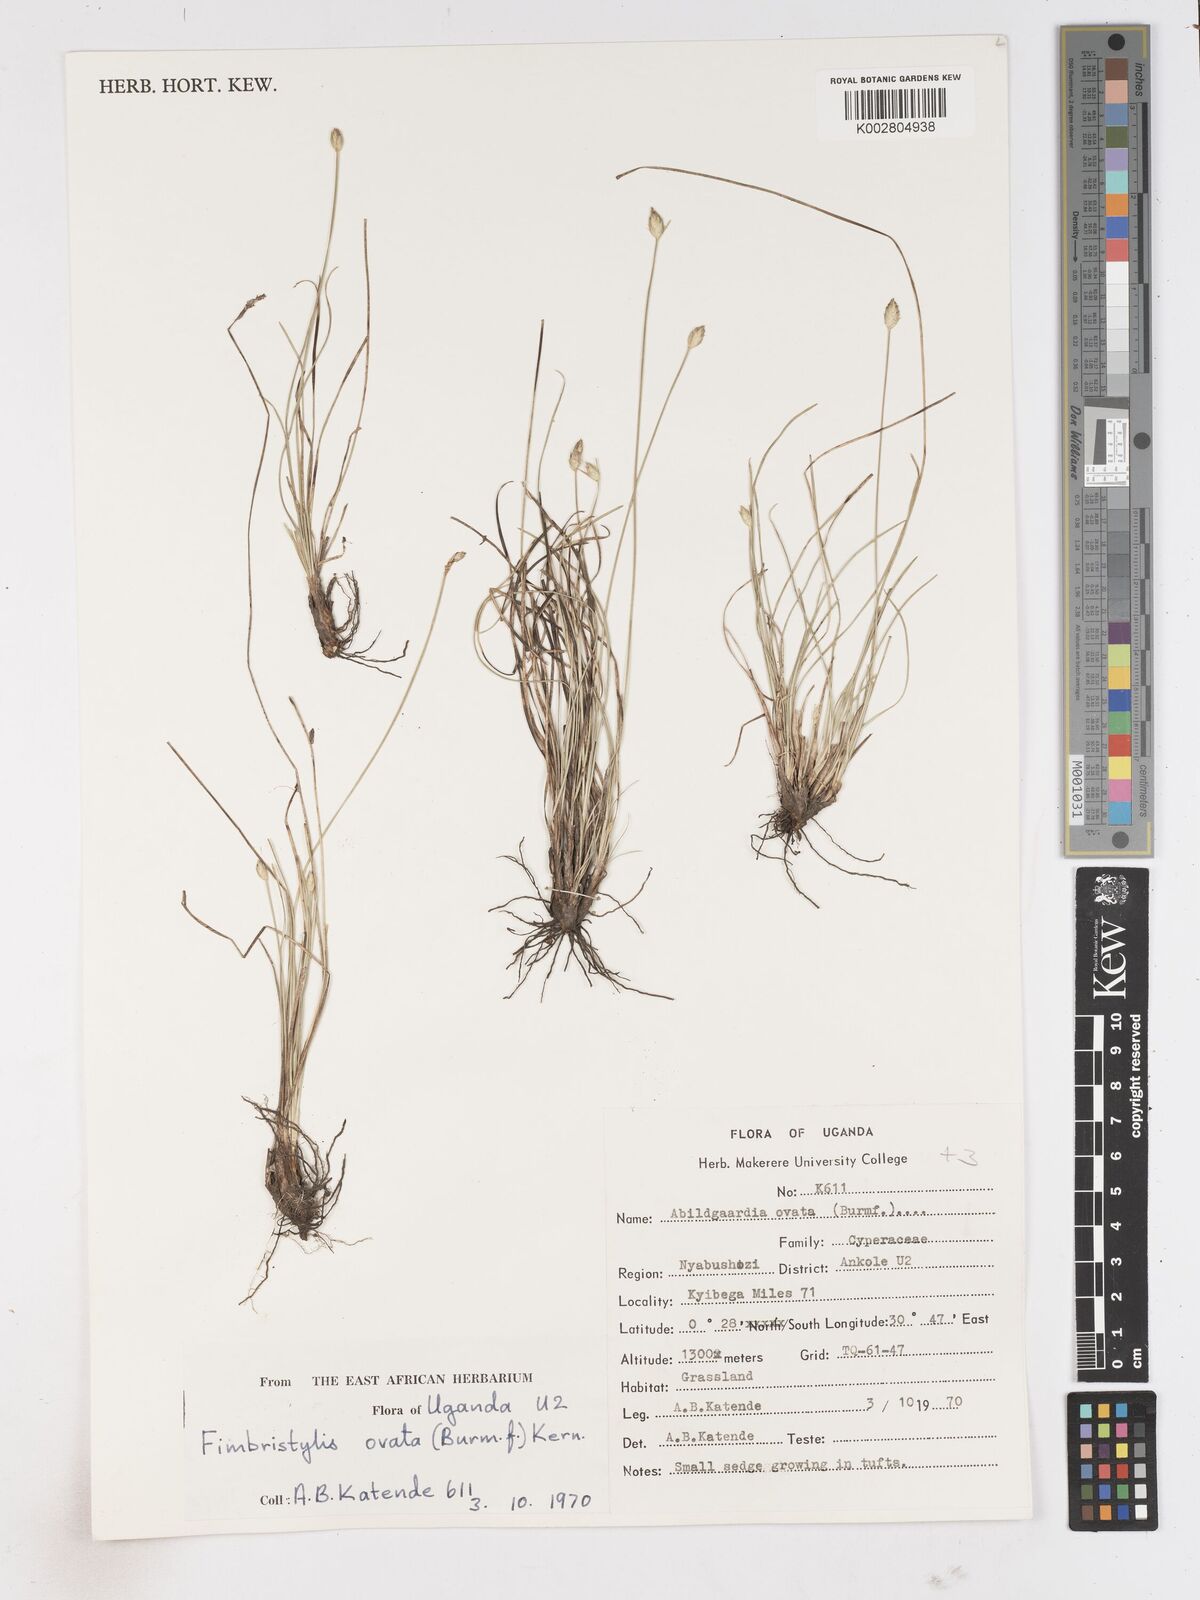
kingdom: Plantae
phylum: Tracheophyta
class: Liliopsida
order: Poales
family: Cyperaceae
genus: Abildgaardia
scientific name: Abildgaardia ovata
